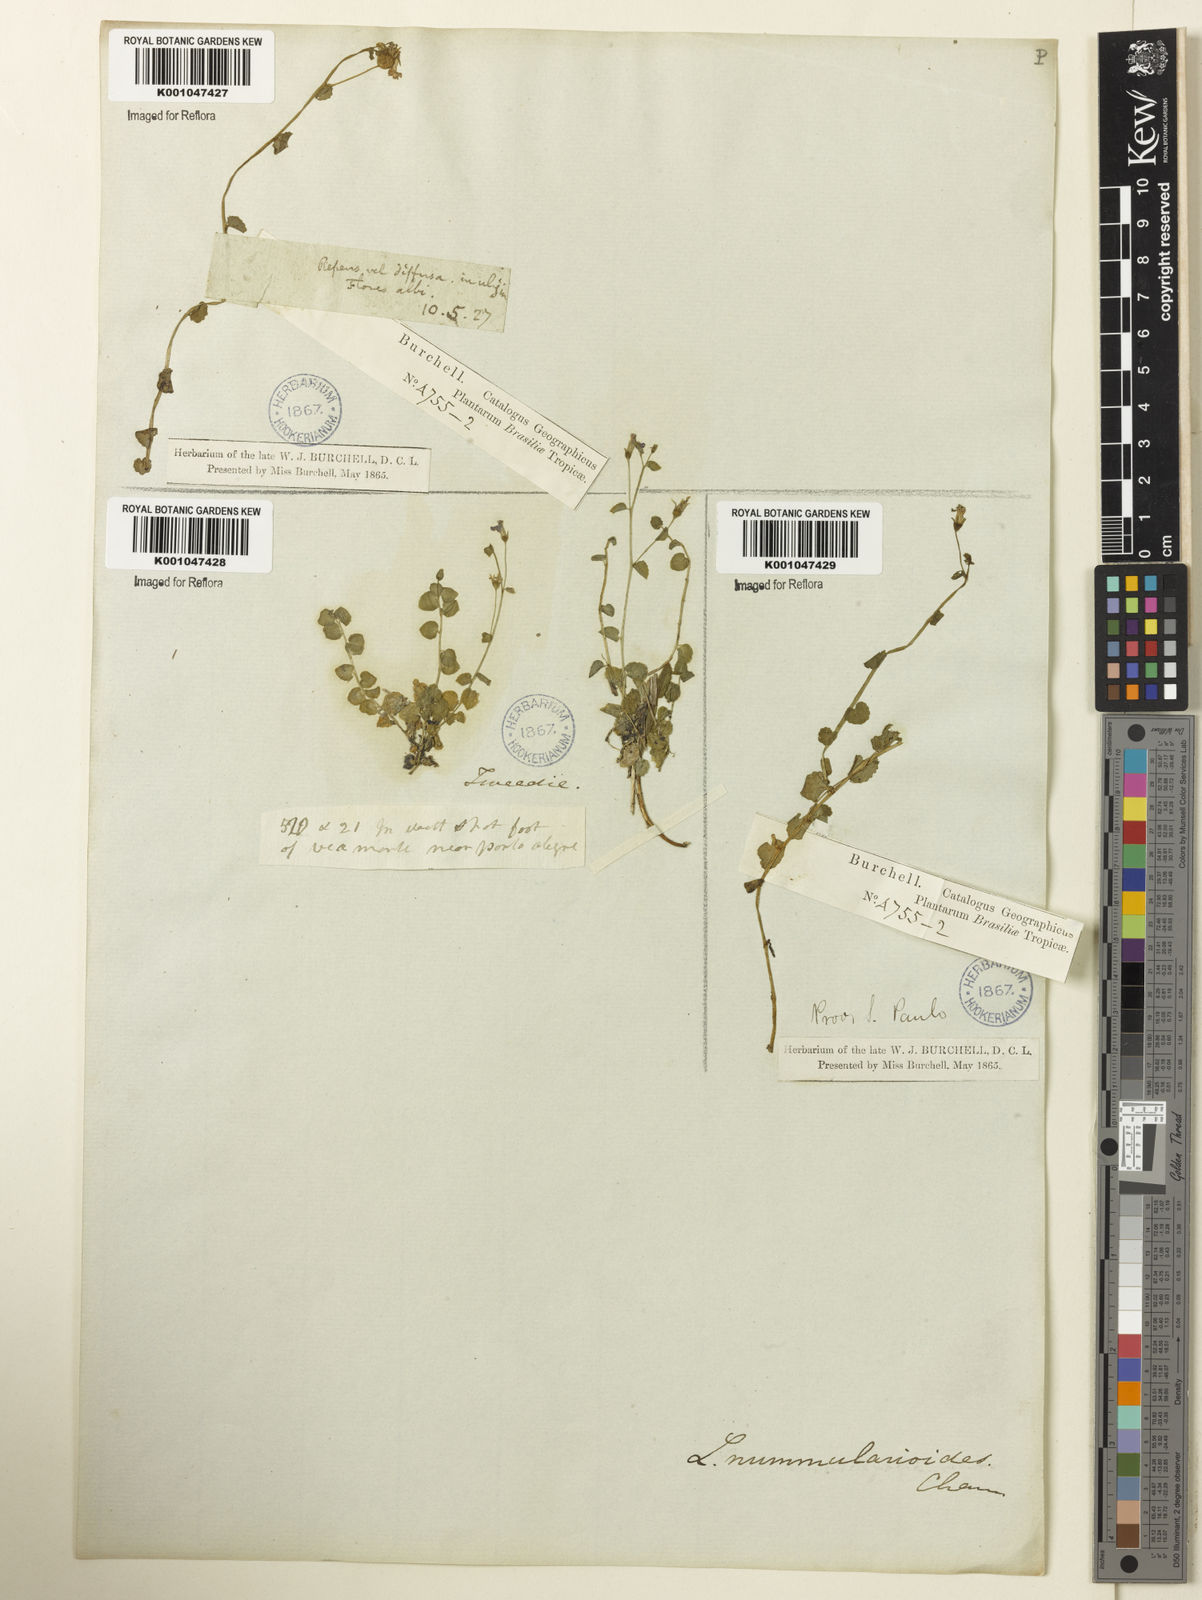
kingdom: Plantae
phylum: Tracheophyta
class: Magnoliopsida
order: Asterales
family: Campanulaceae
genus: Lobelia
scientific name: Lobelia nummularioides
